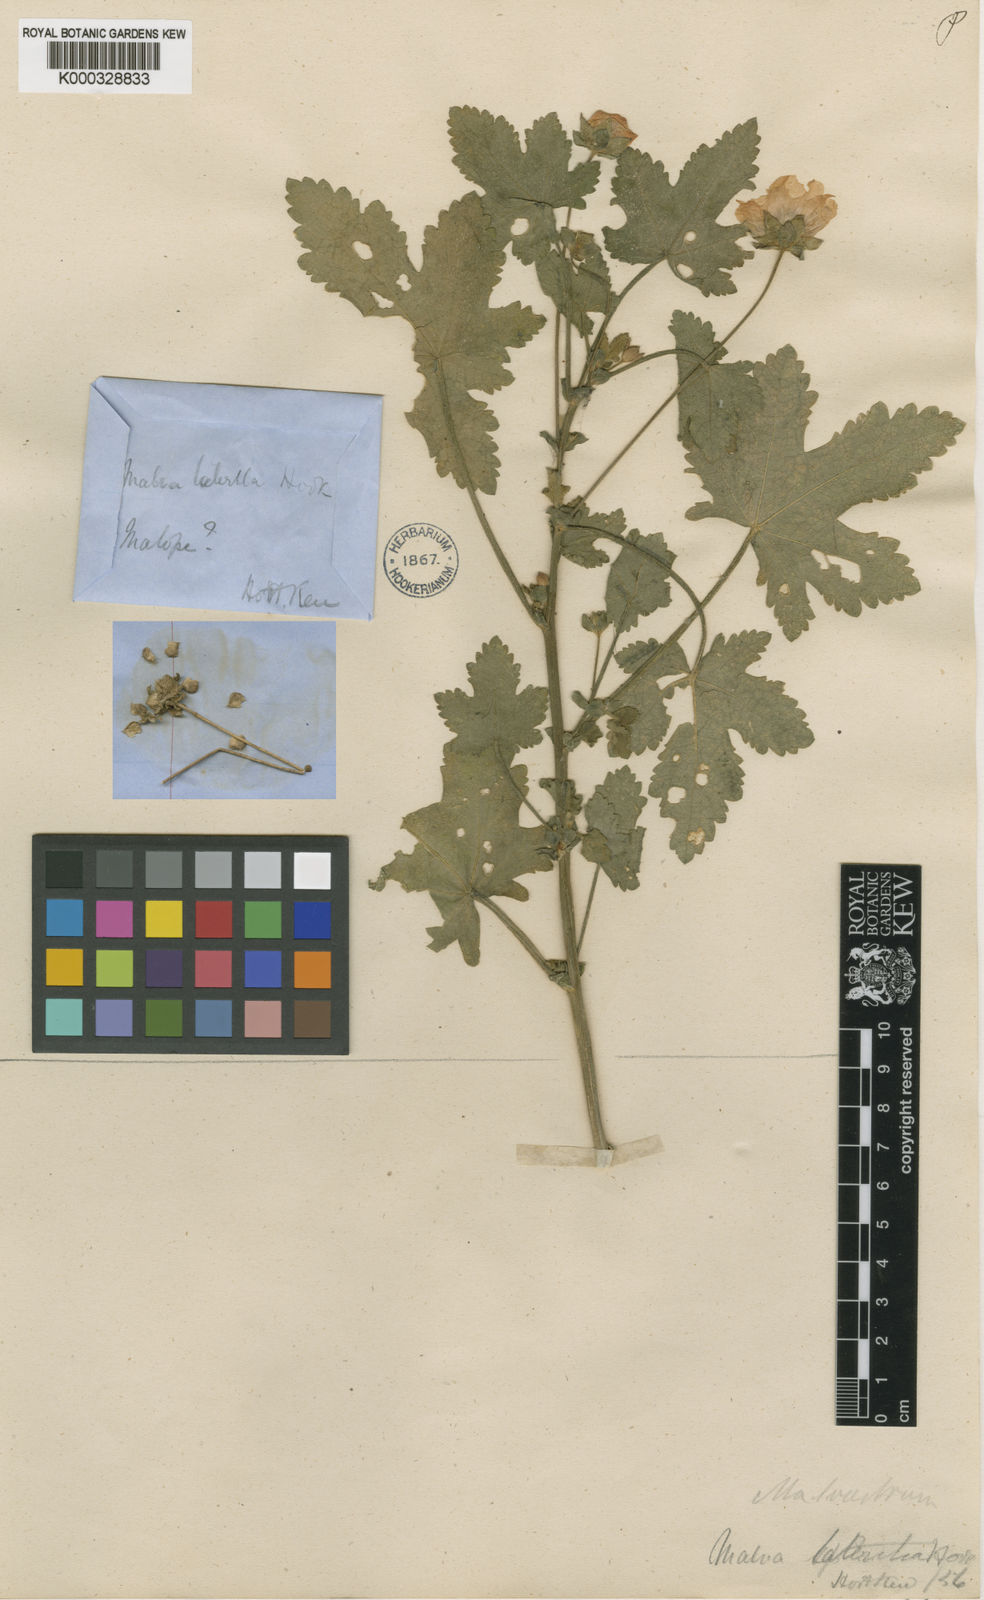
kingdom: Plantae
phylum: Tracheophyta
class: Magnoliopsida
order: Malvales
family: Malvaceae
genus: Modiolastrum
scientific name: Modiolastrum lateritium
